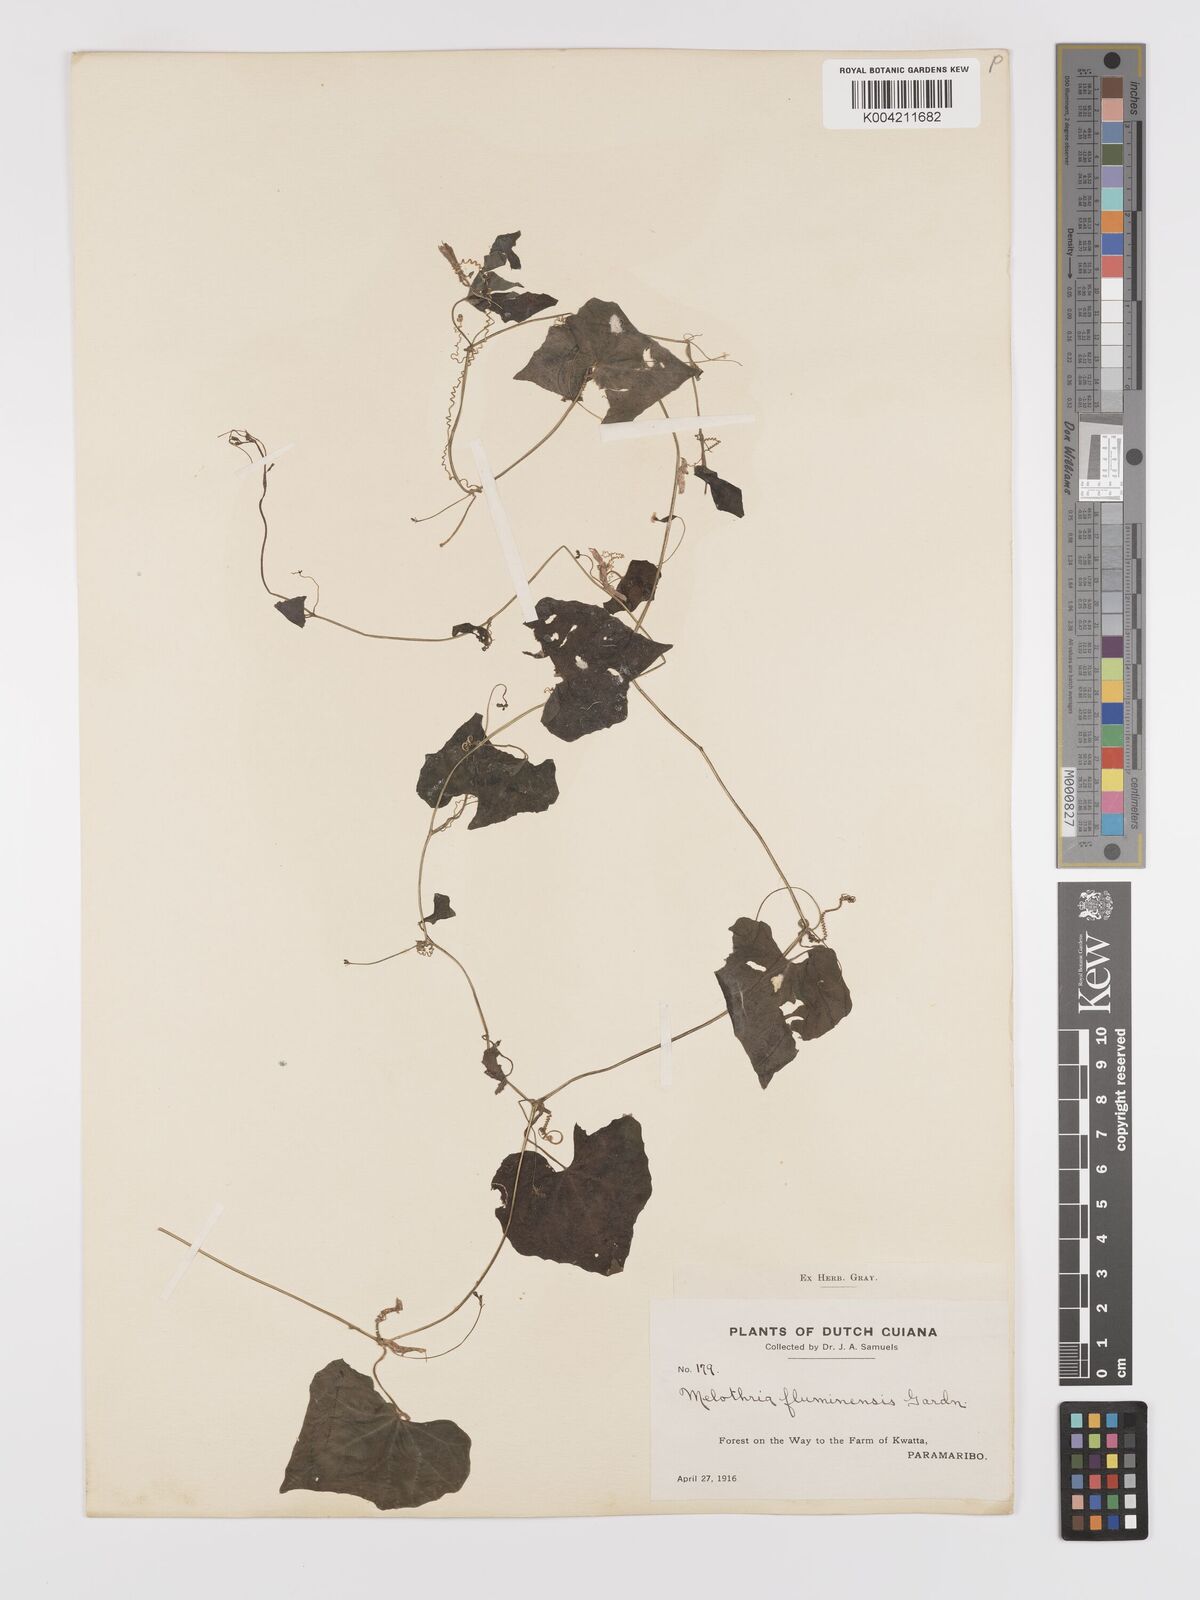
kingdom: Plantae
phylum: Tracheophyta
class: Magnoliopsida
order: Cucurbitales
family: Cucurbitaceae
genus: Melothria
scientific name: Melothria pendula
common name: Creeping-cucumber
